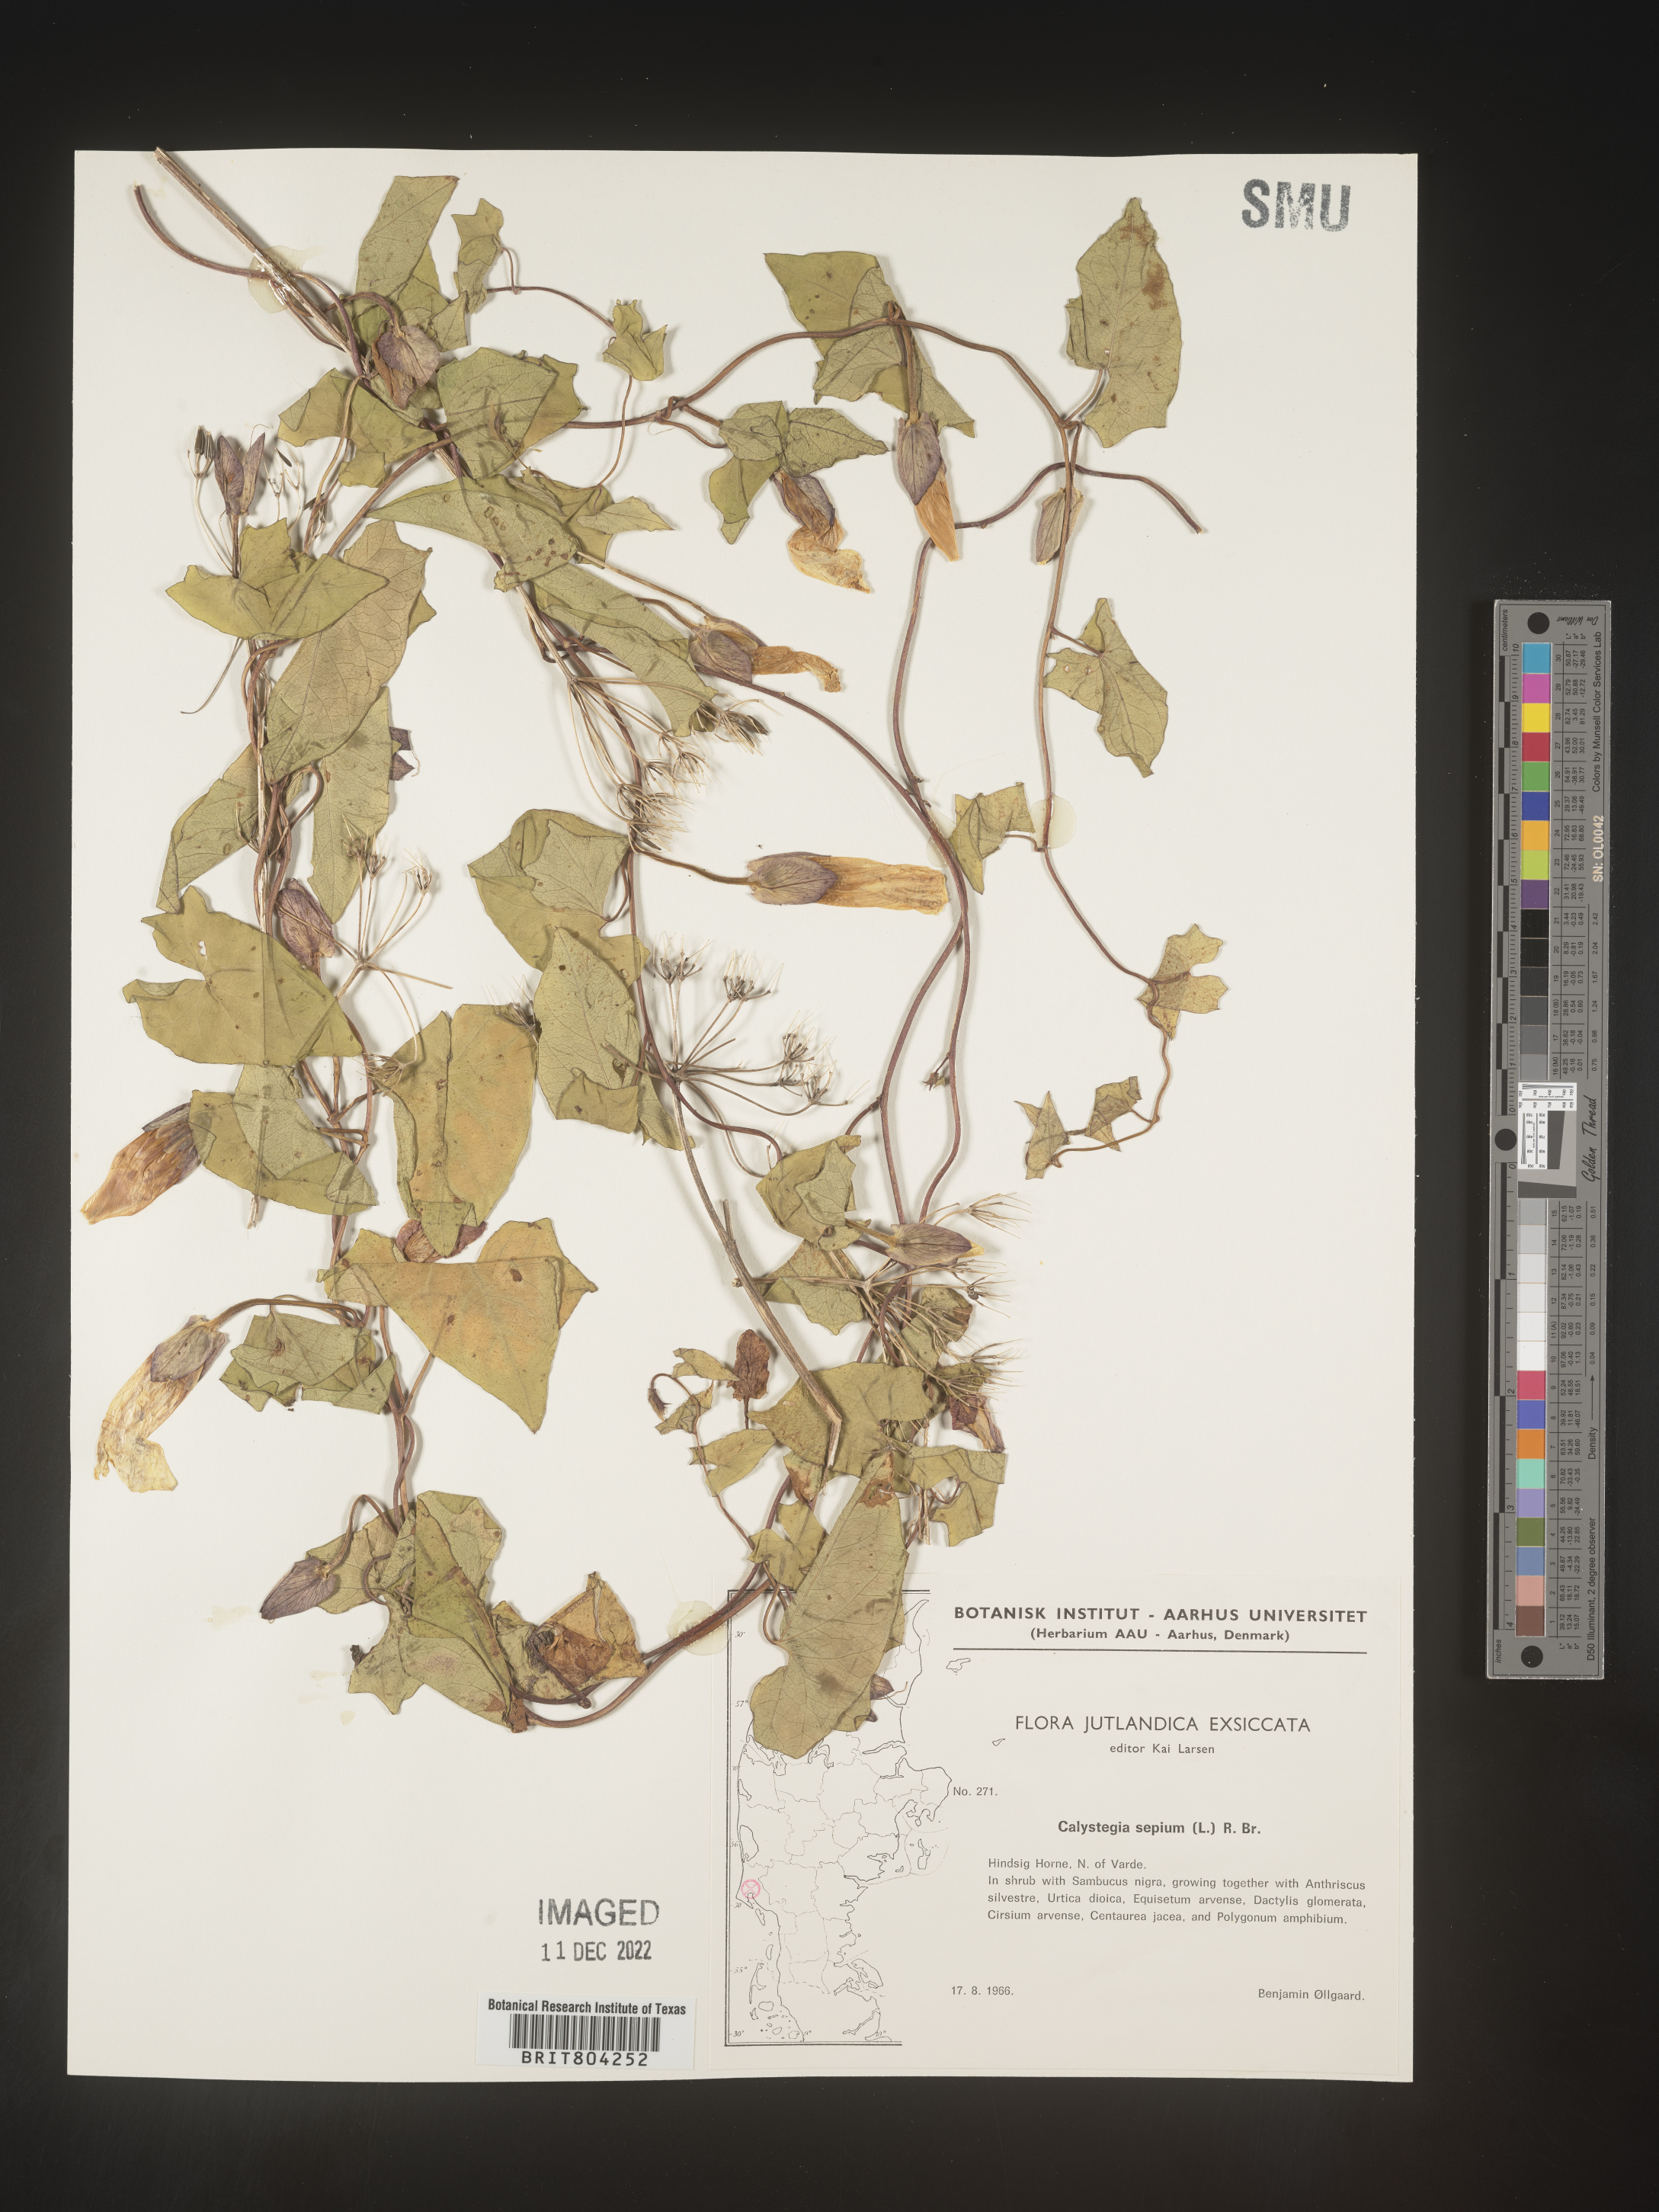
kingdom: Plantae
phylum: Tracheophyta
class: Magnoliopsida
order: Solanales
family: Convolvulaceae
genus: Calystegia
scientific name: Calystegia
